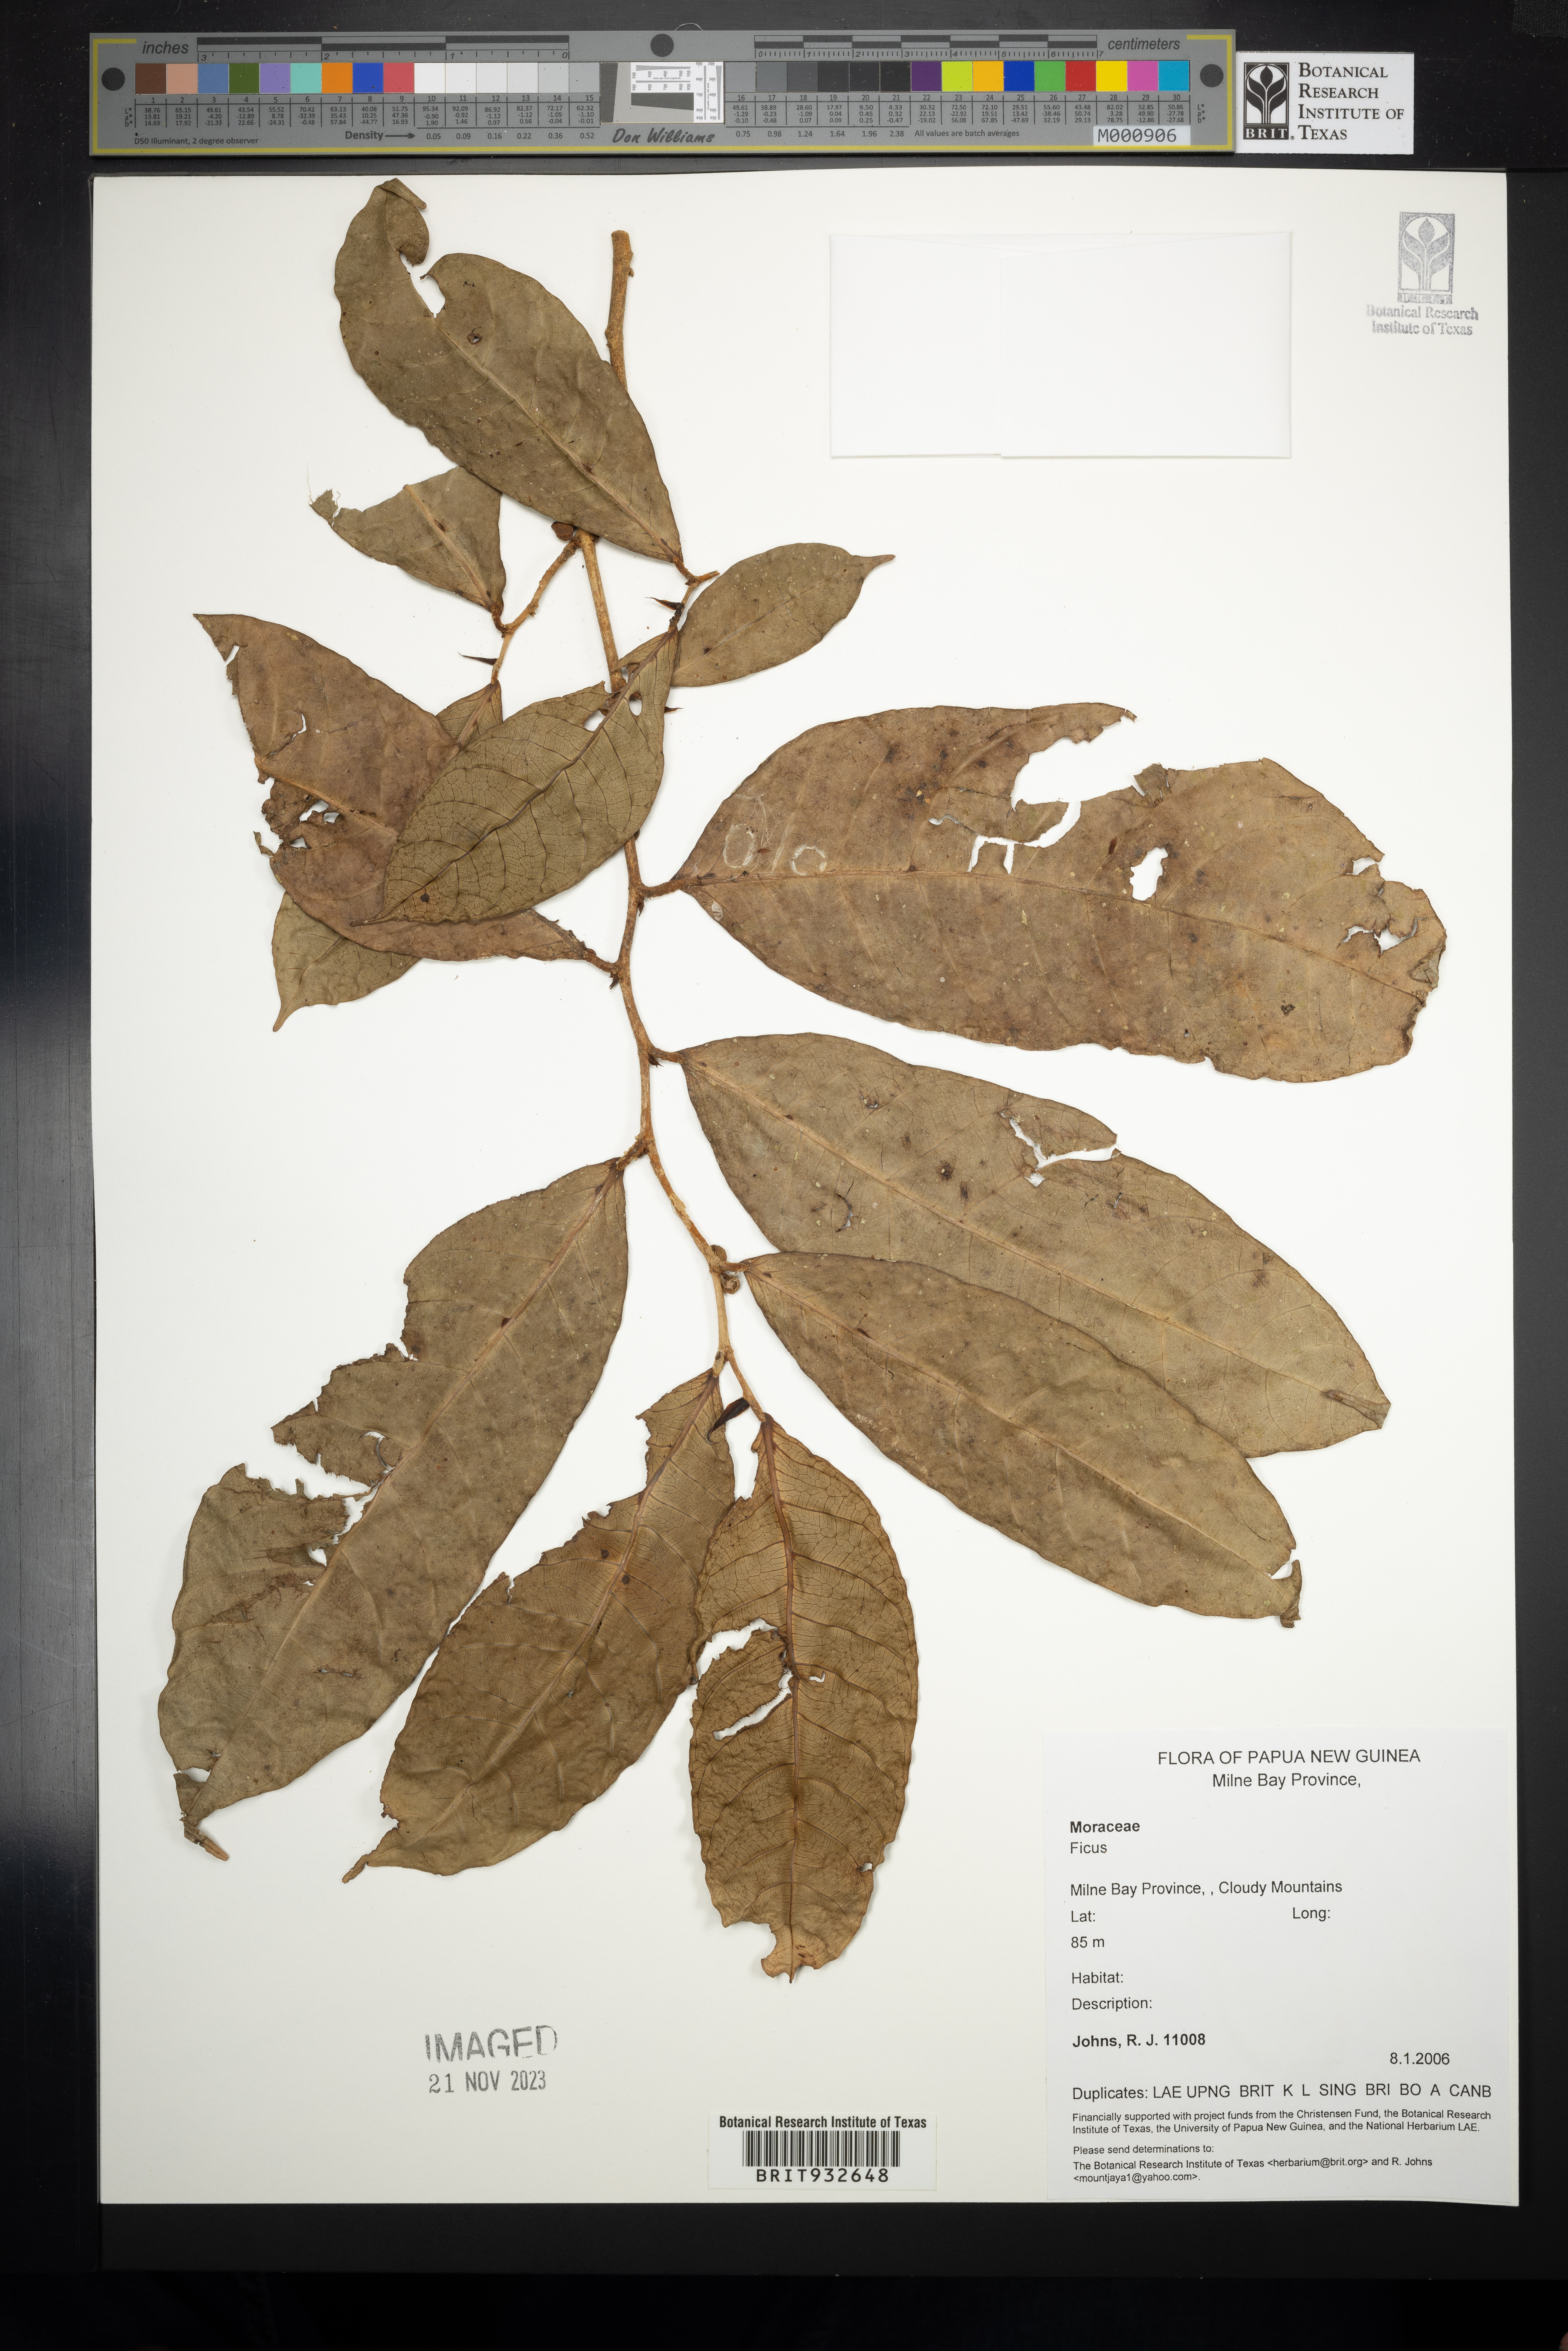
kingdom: Plantae
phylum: Tracheophyta
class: Magnoliopsida
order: Rosales
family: Moraceae
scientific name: Moraceae
